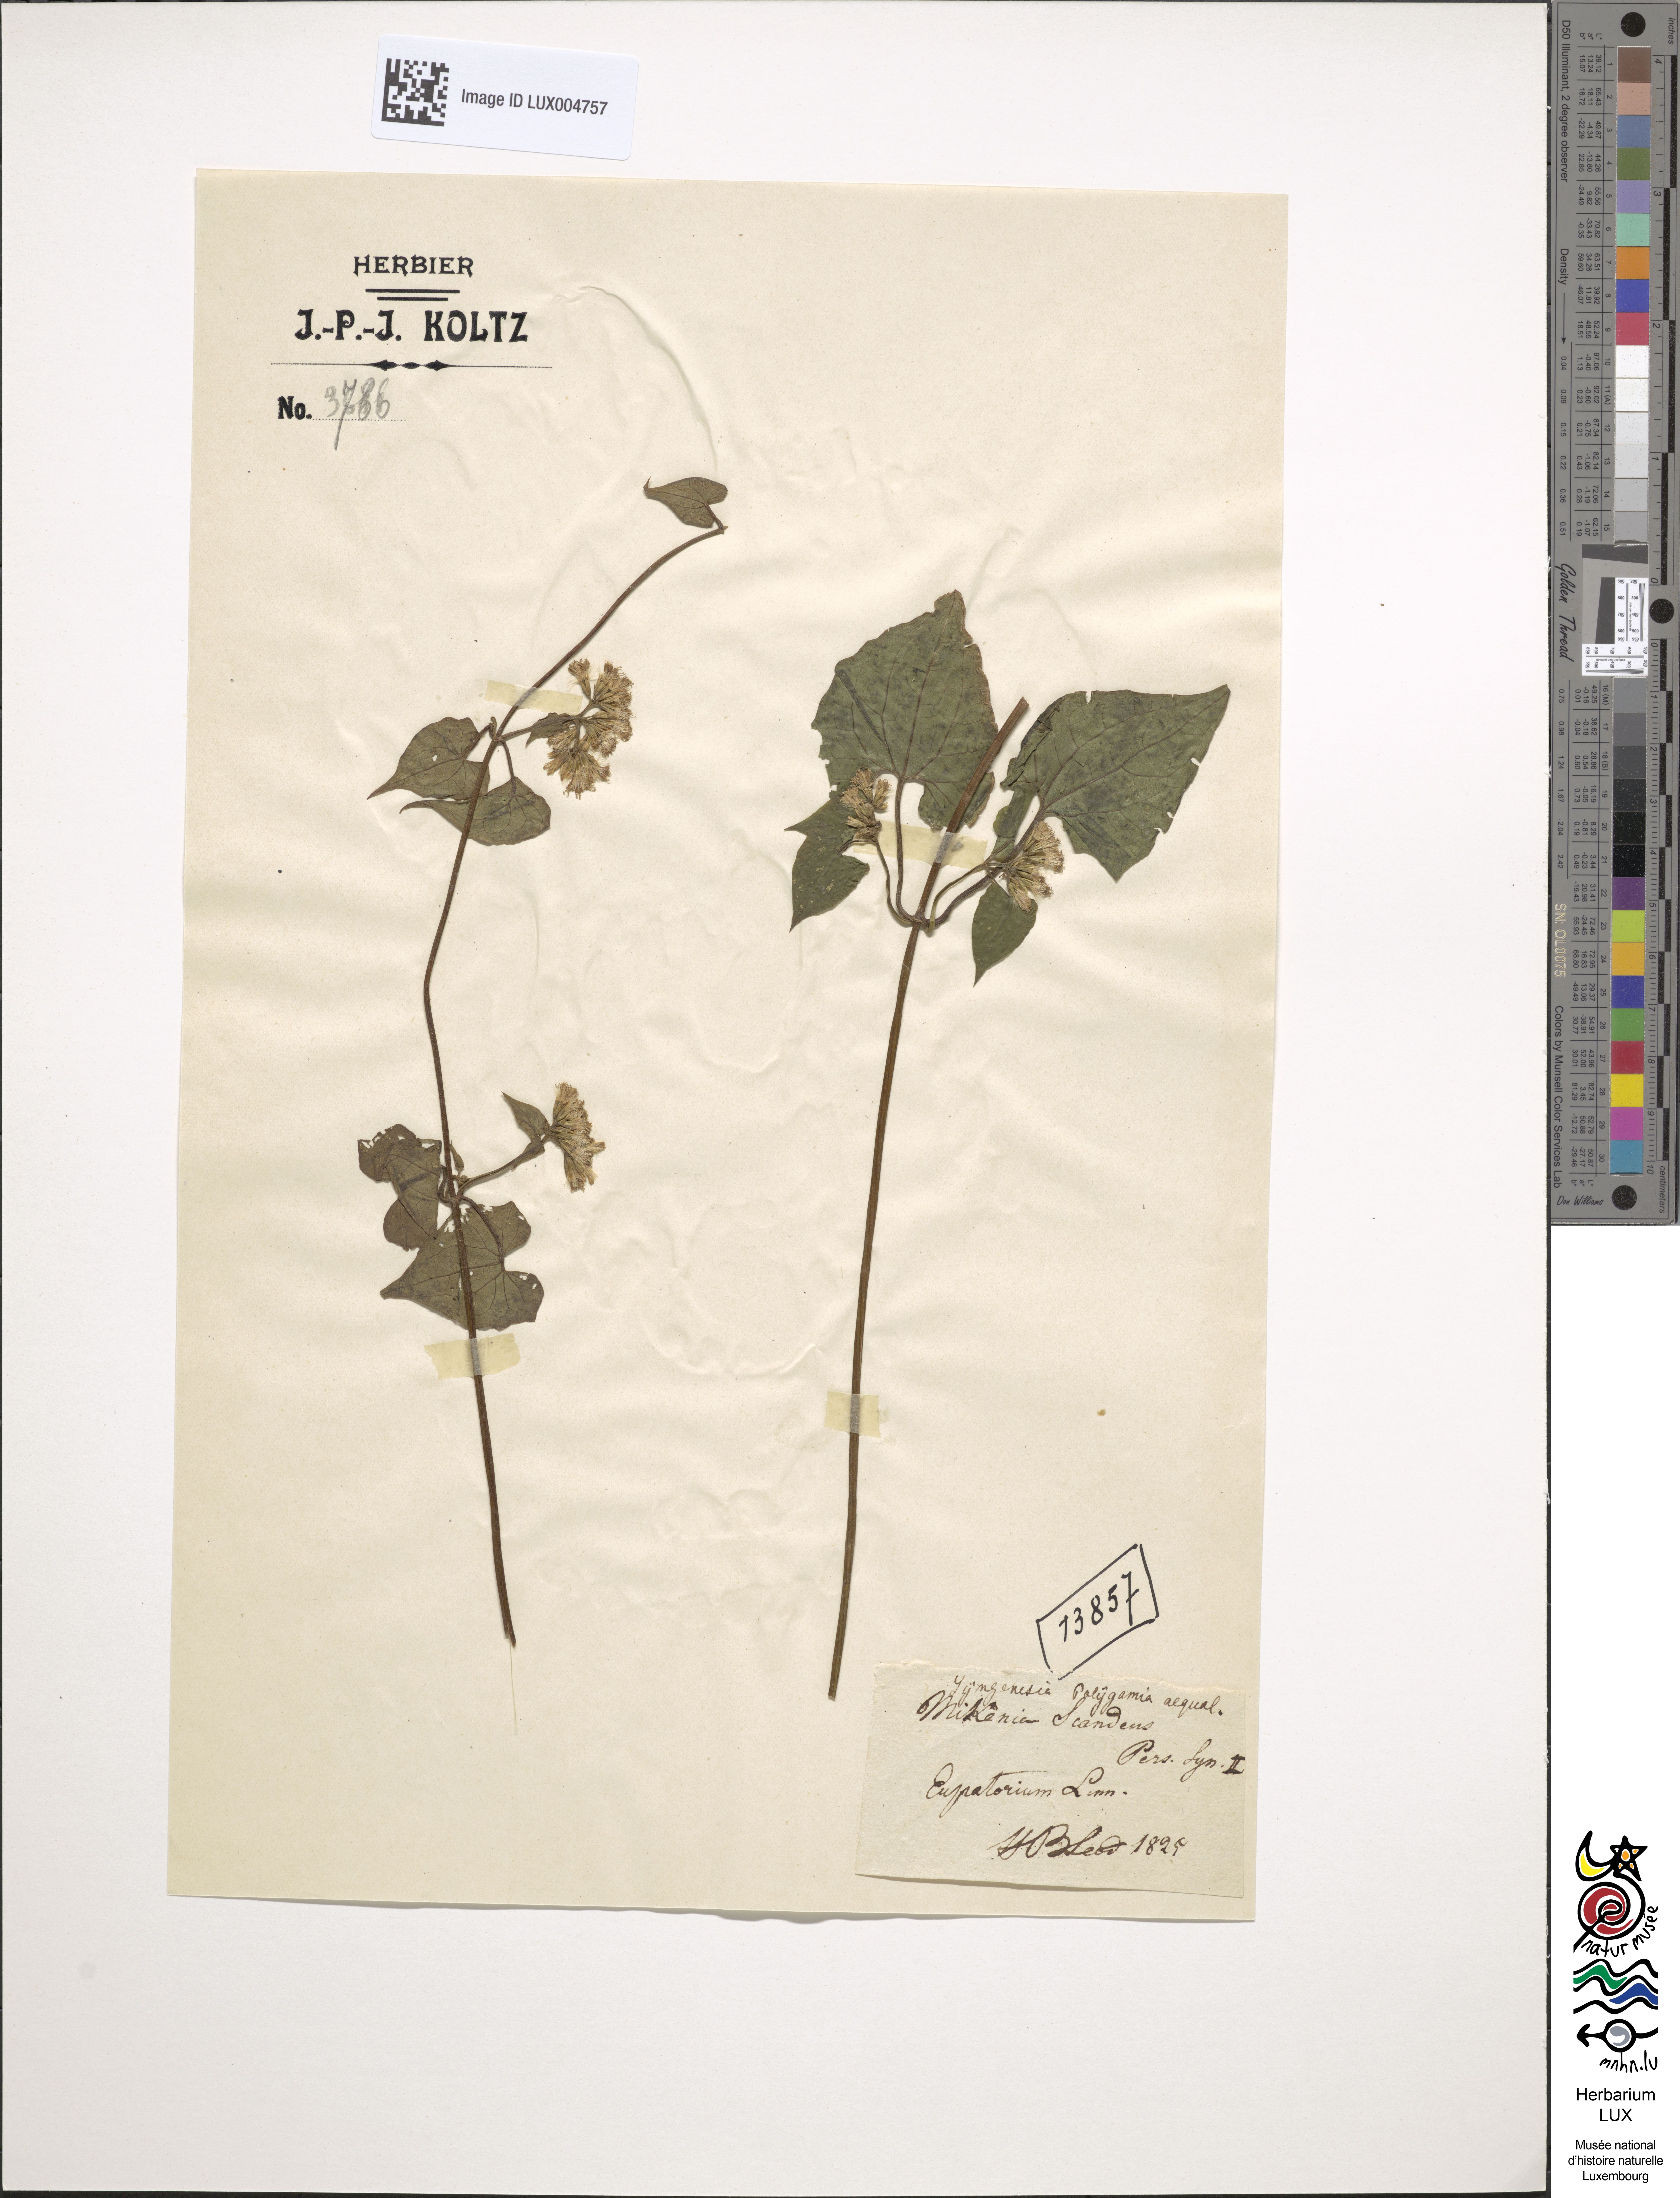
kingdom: Plantae
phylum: Tracheophyta
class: Magnoliopsida
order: Asterales
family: Asteraceae
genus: Mikania
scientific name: Mikania scandens
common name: Climbing hempvine
